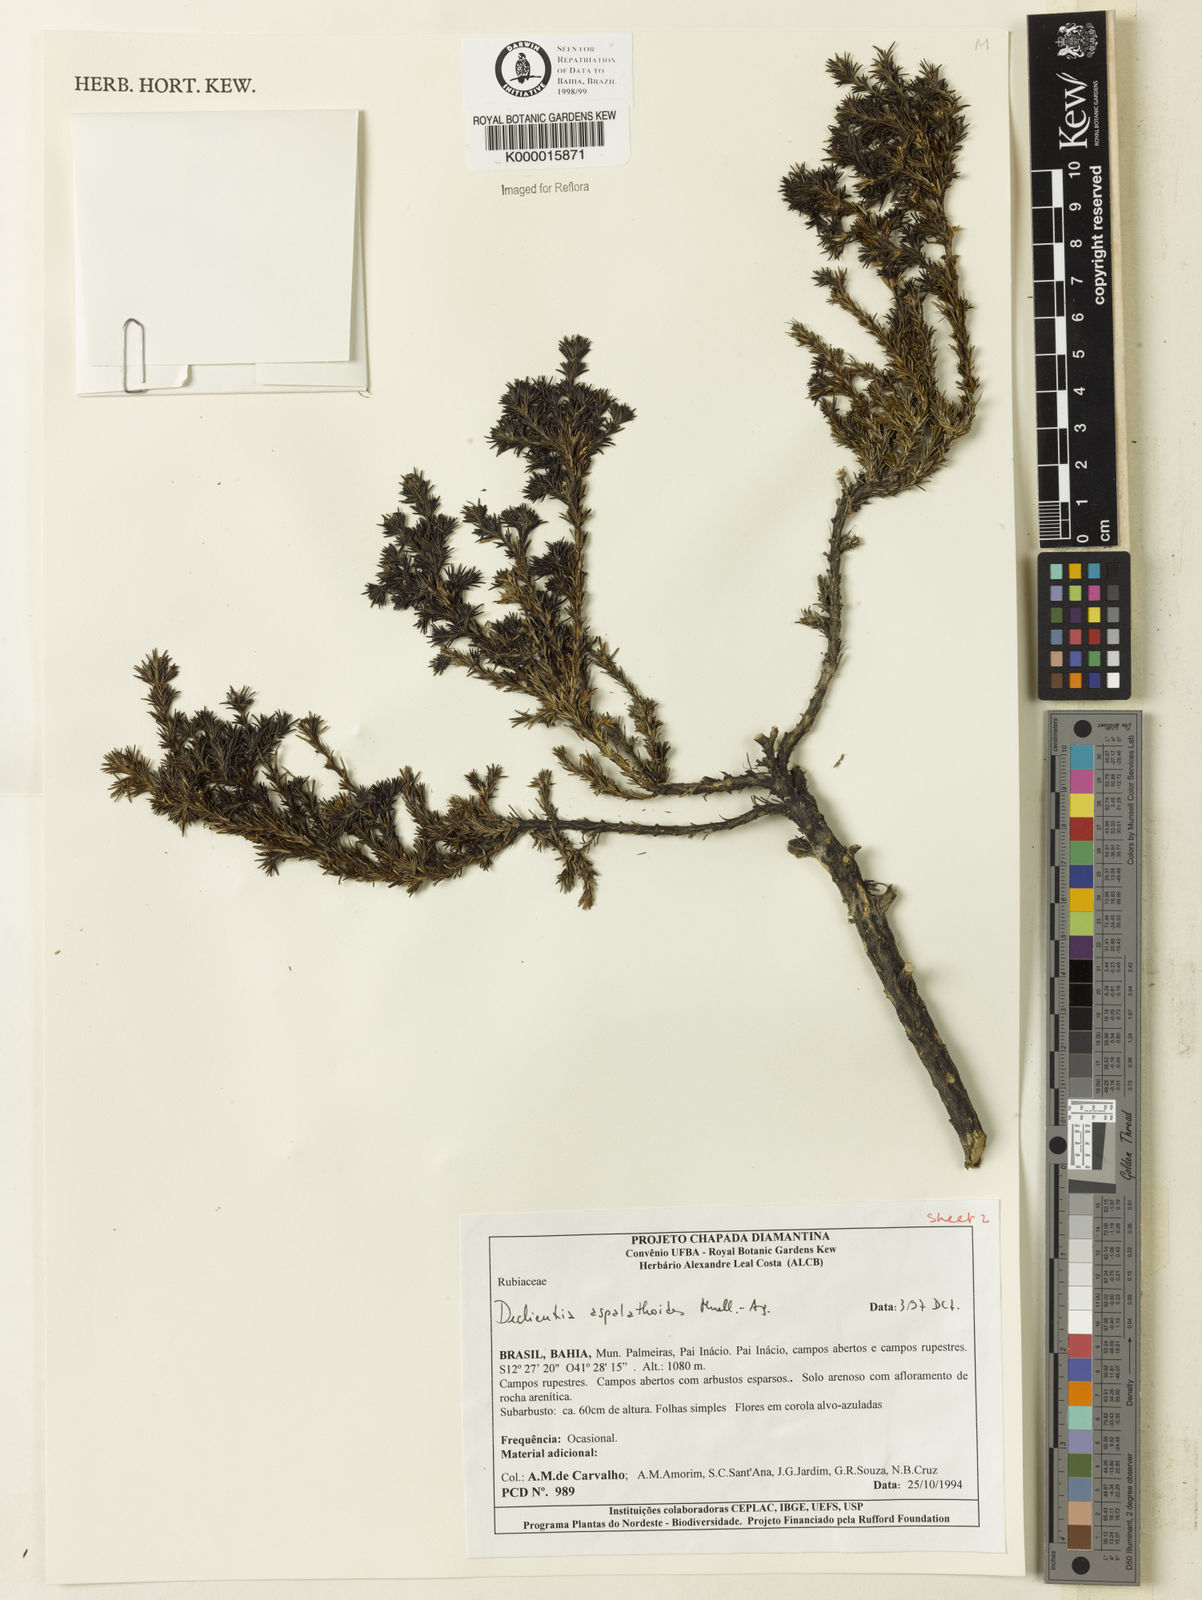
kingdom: Plantae
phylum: Tracheophyta
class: Magnoliopsida
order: Gentianales
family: Rubiaceae
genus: Declieuxia
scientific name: Declieuxia aspalathoides
